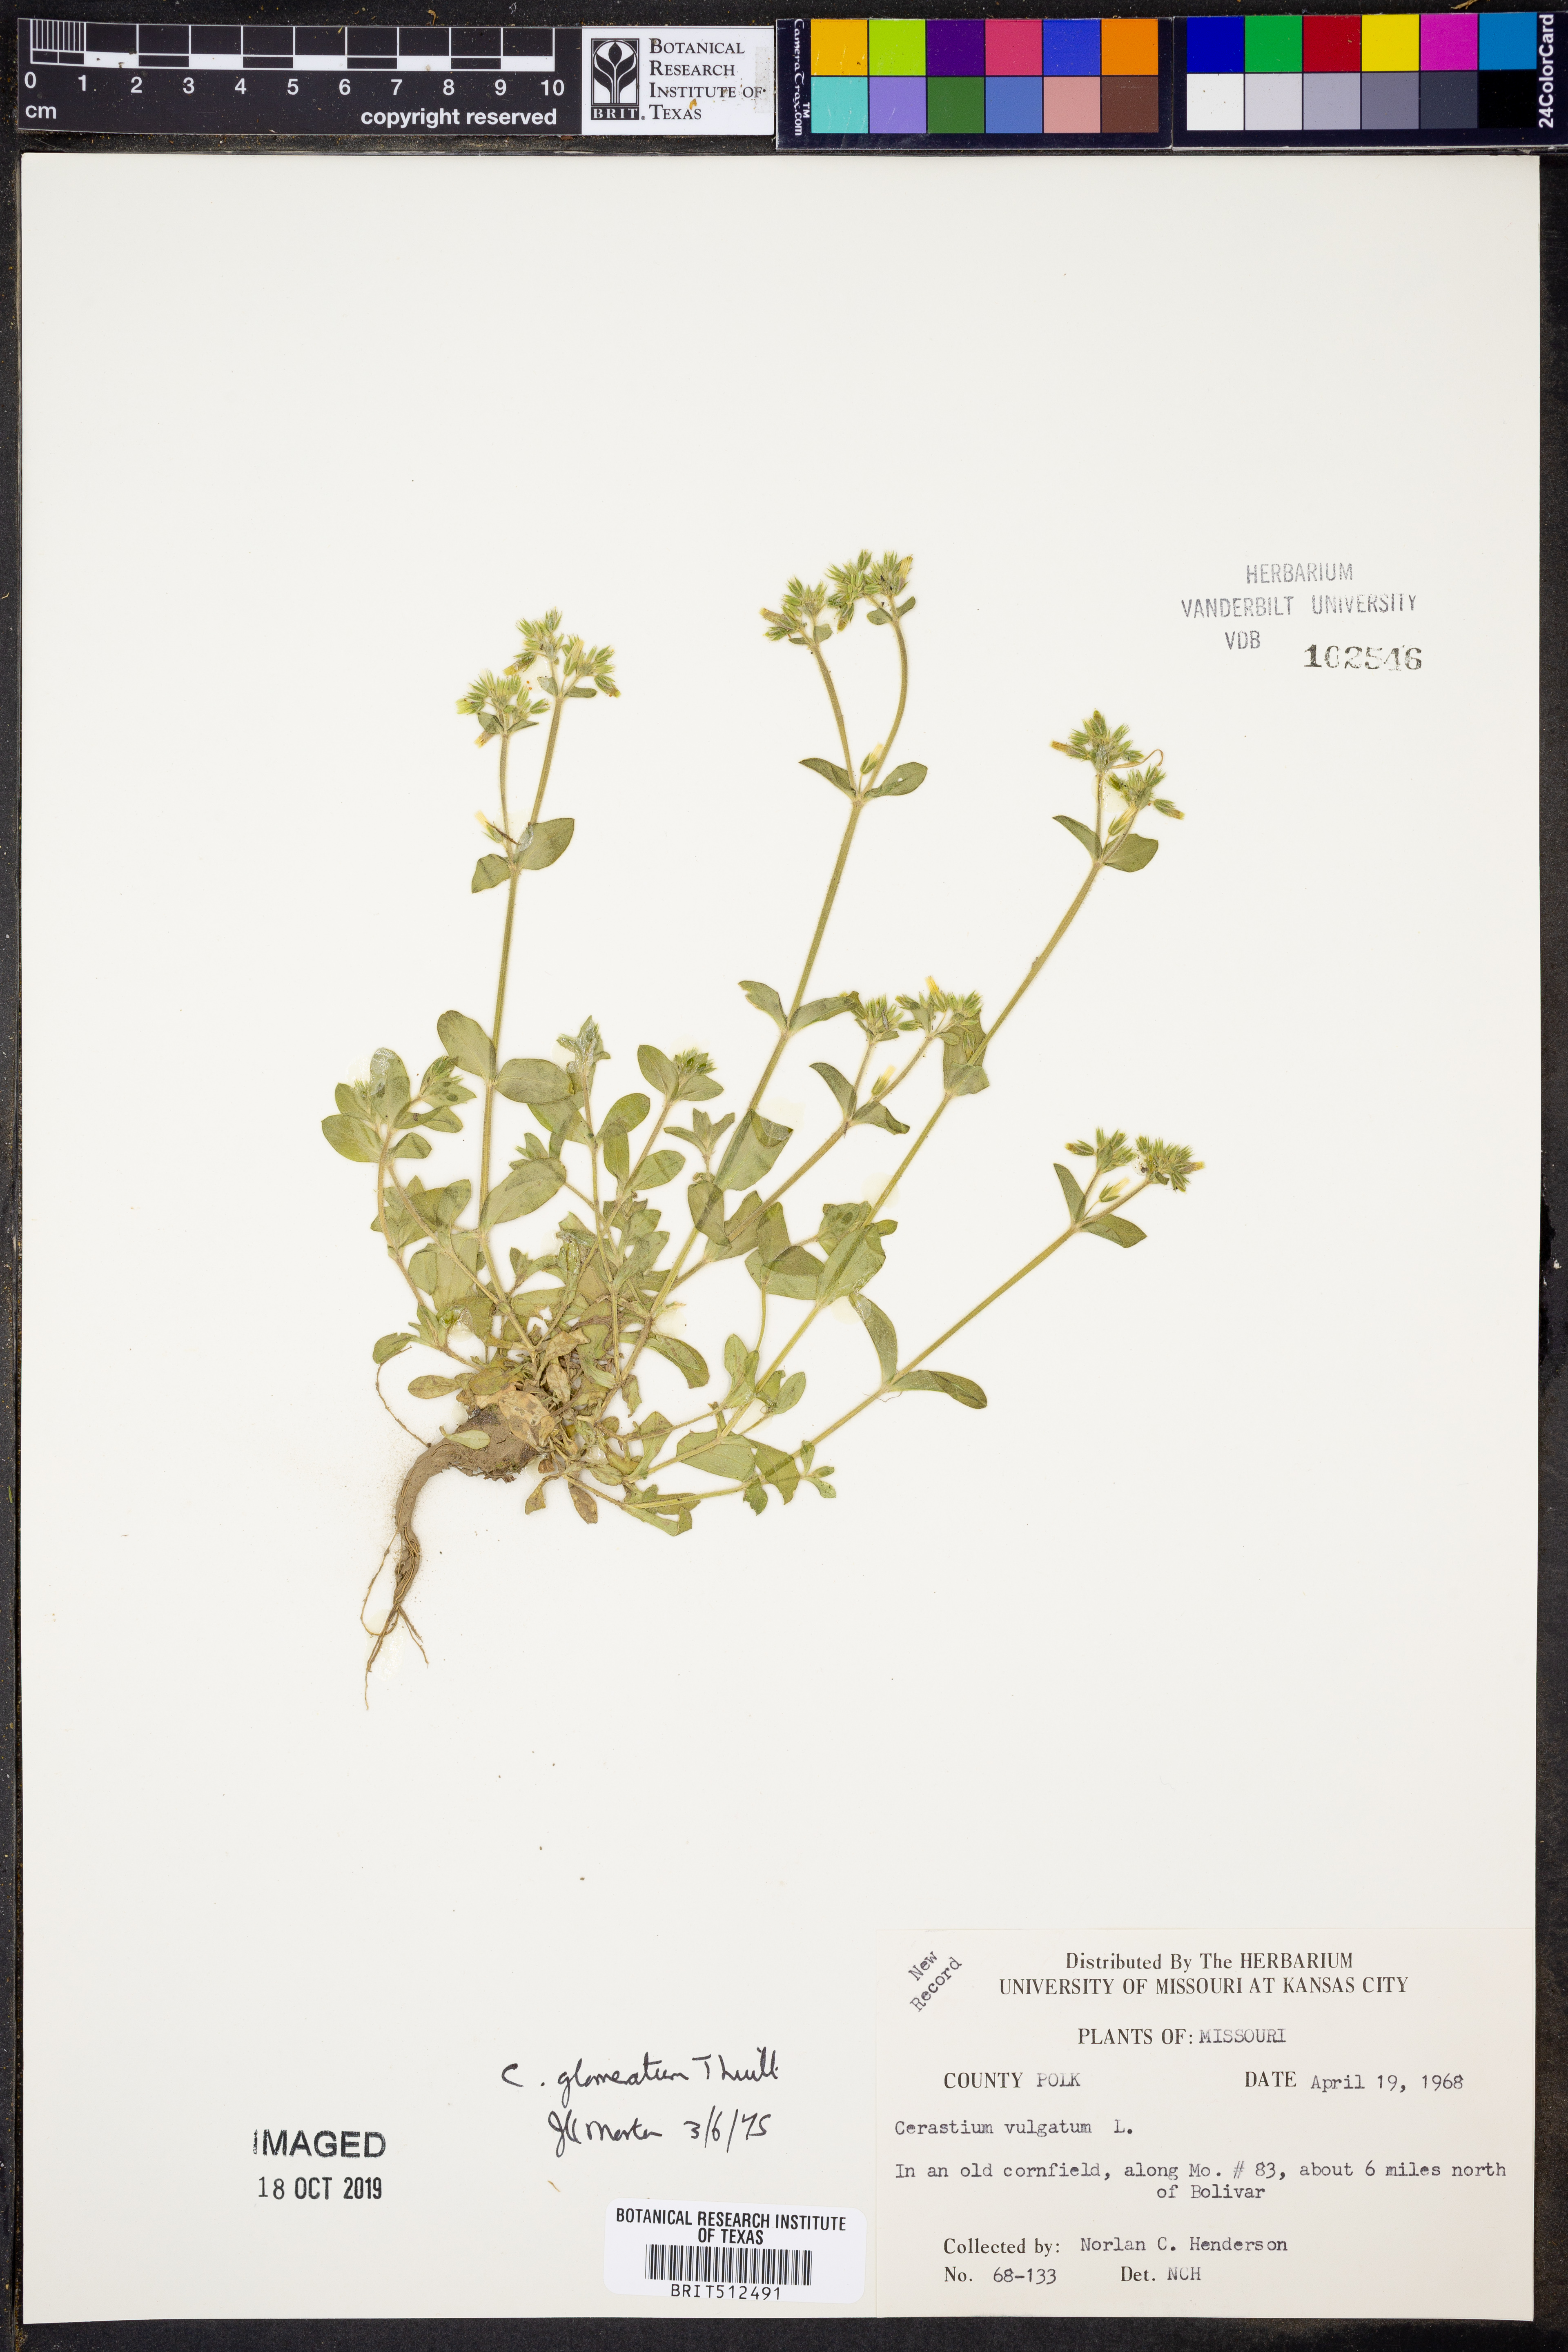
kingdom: Plantae
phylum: Tracheophyta
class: Magnoliopsida
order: Caryophyllales
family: Caryophyllaceae
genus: Cerastium
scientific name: Cerastium glomeratum
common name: Sticky chickweed
